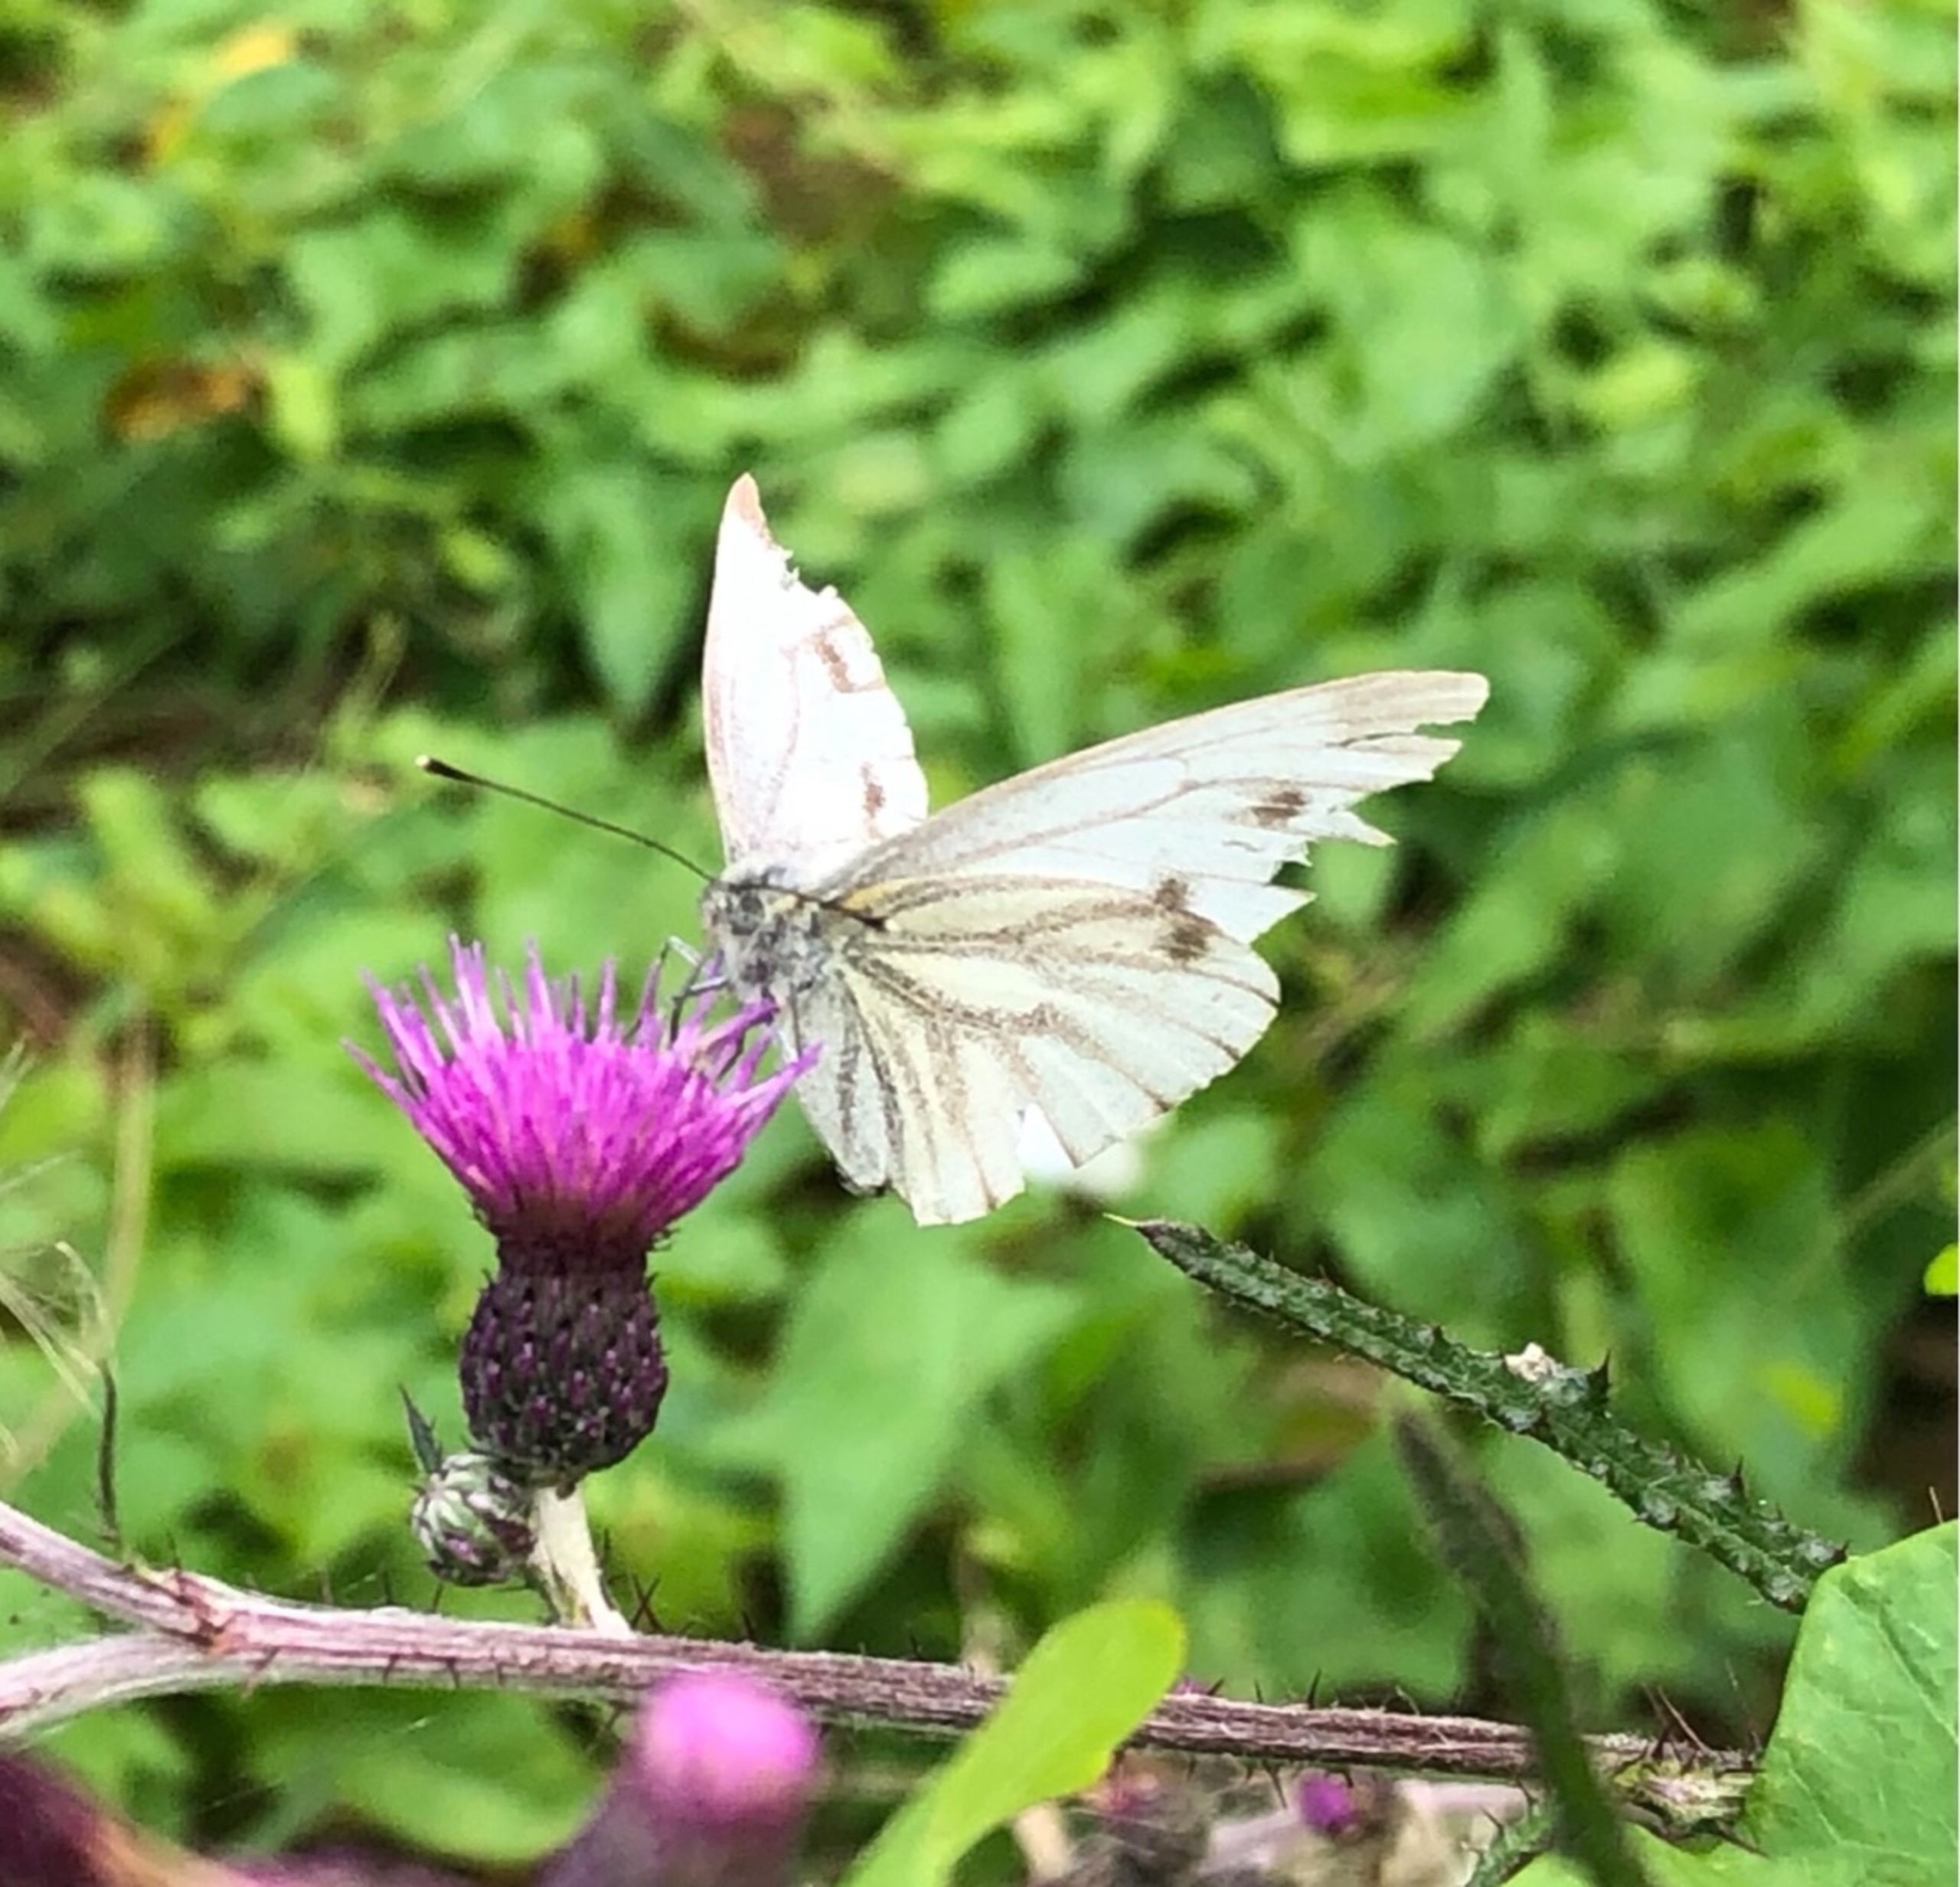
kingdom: Animalia
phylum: Arthropoda
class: Insecta
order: Lepidoptera
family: Pieridae
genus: Pieris
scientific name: Pieris napi
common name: Grønåret kålsommerfugl
